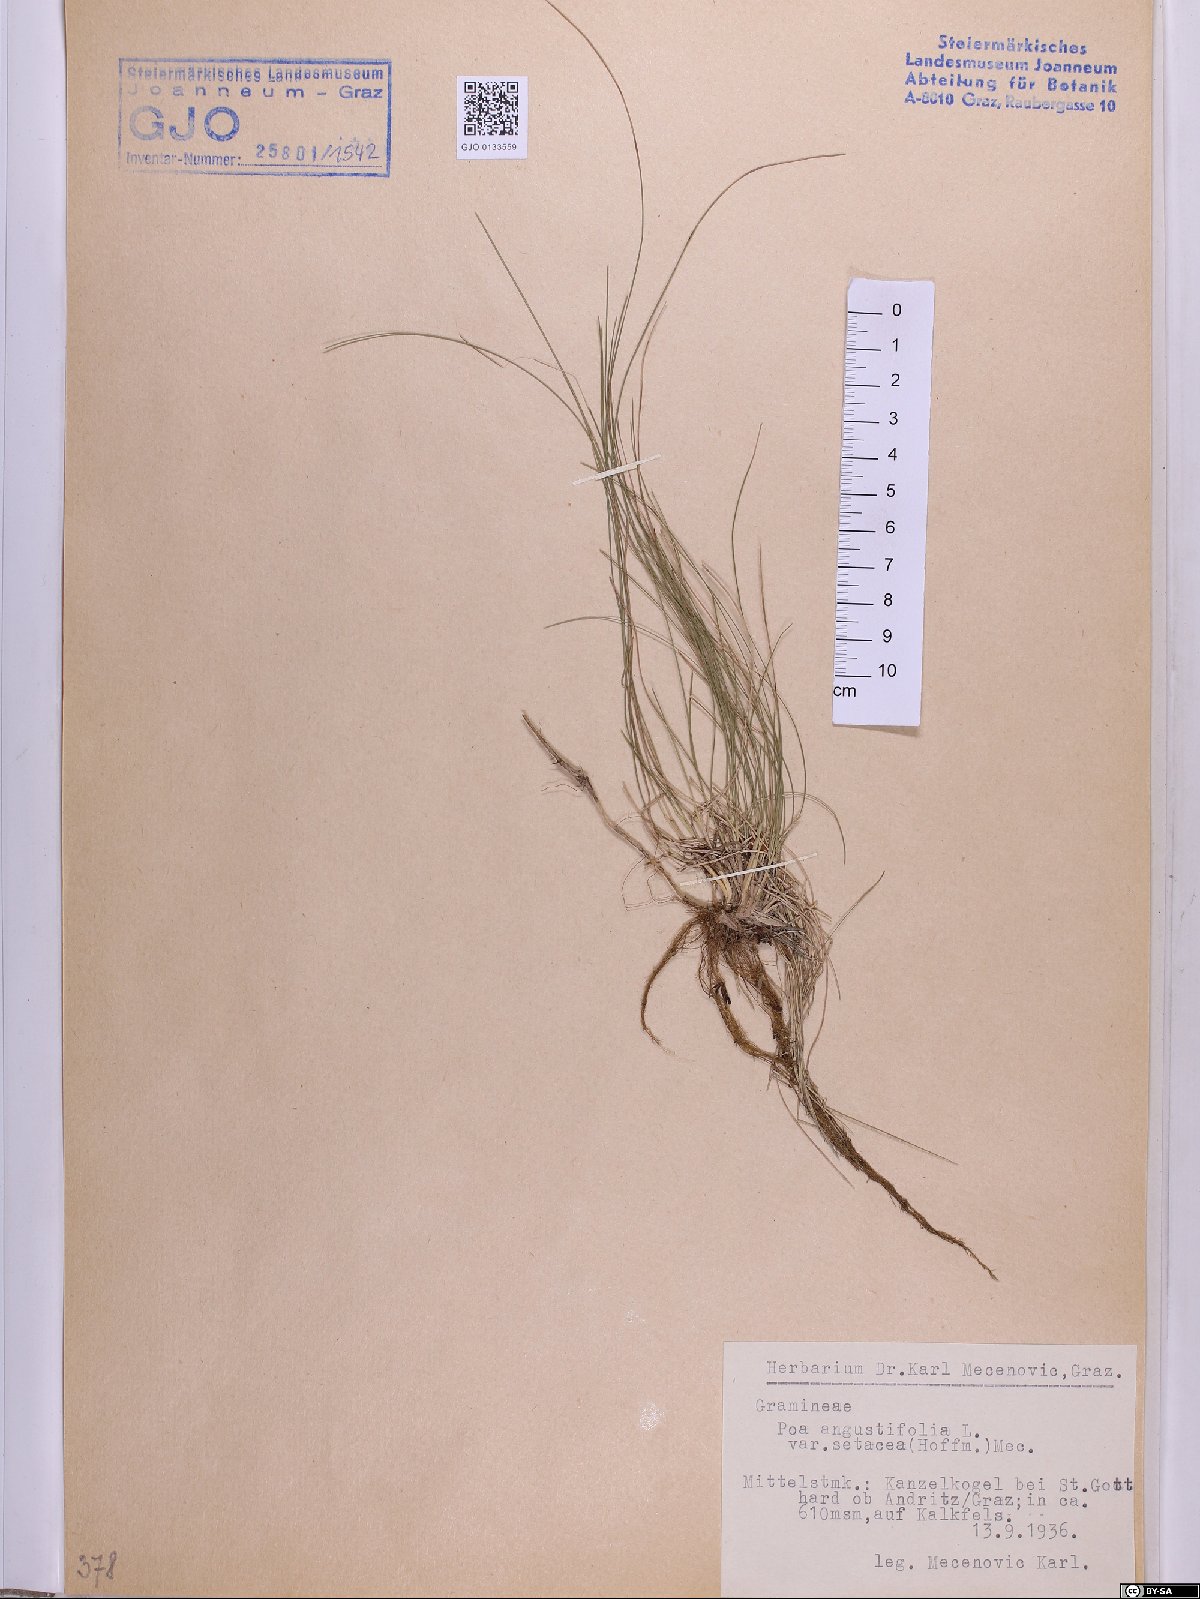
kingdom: Plantae
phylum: Tracheophyta
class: Liliopsida
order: Poales
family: Poaceae
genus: Poa
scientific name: Poa angustifolia
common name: Narrow-leaved meadow-grass
